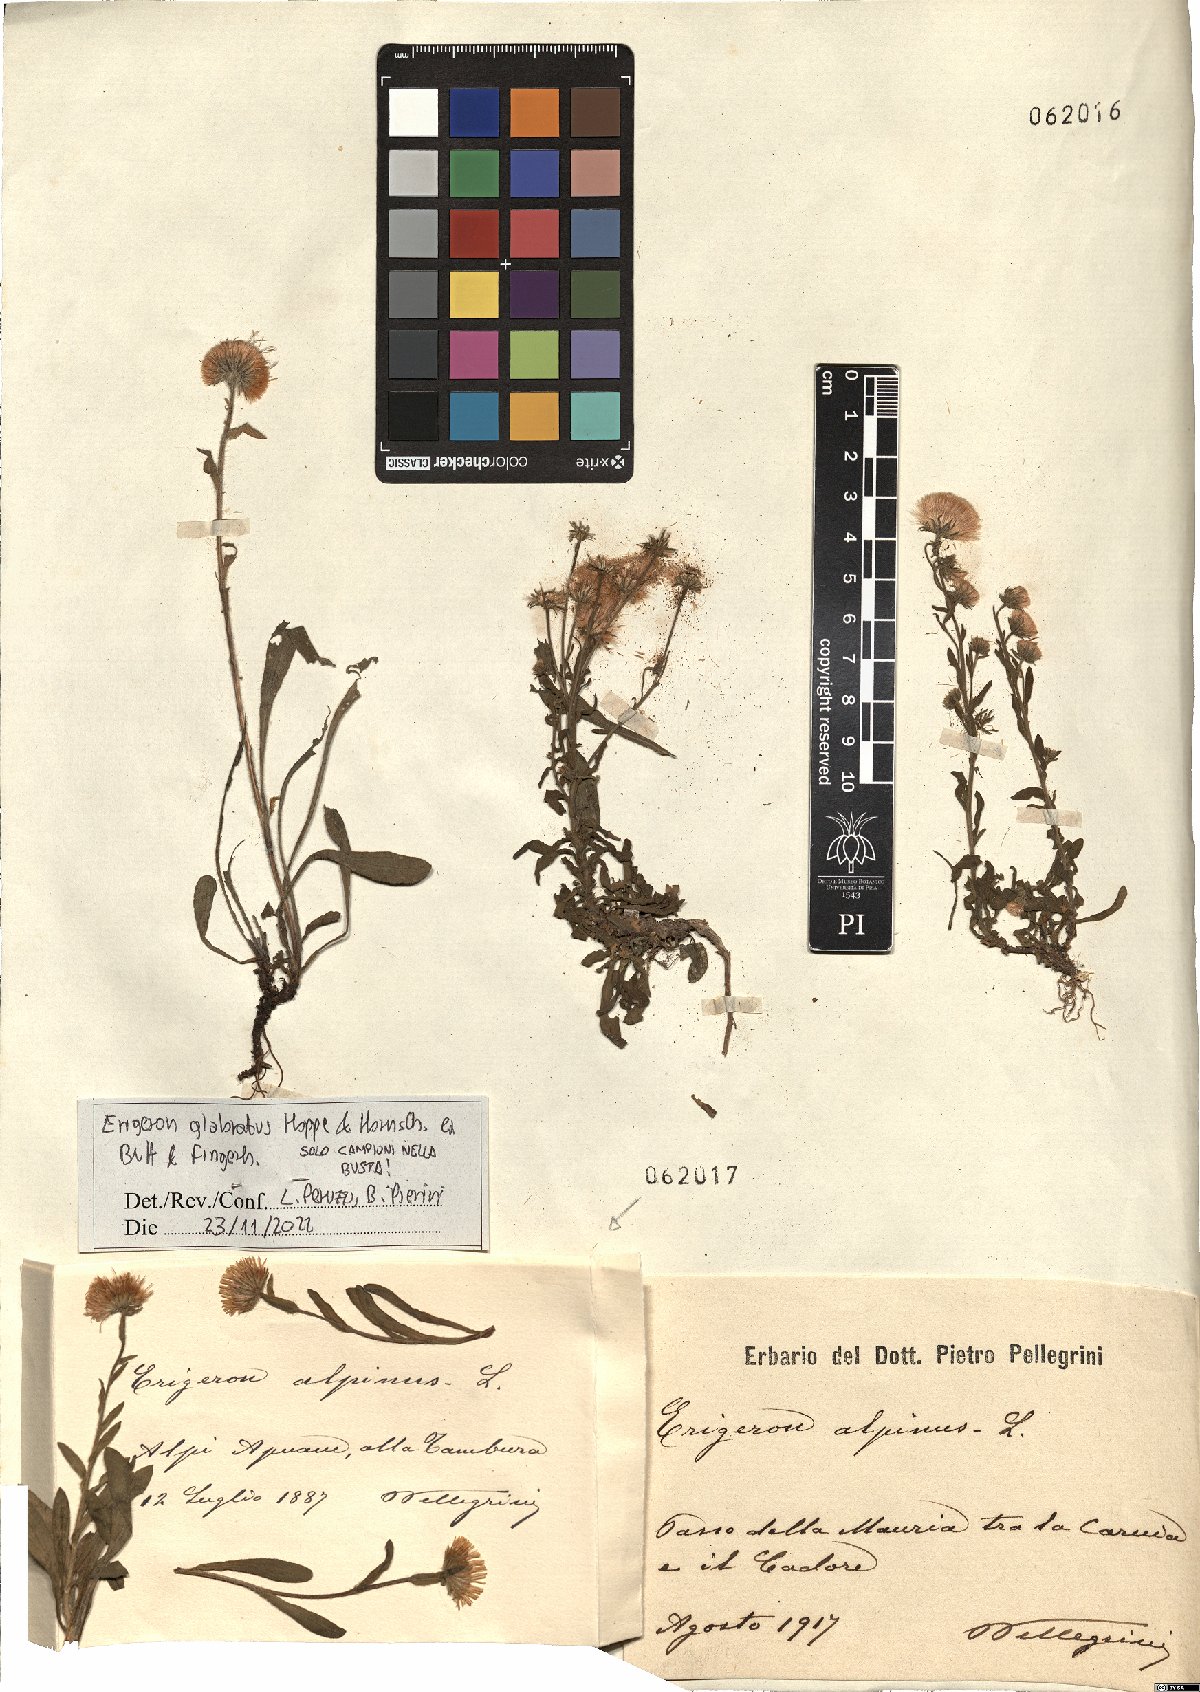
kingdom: Plantae
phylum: Tracheophyta
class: Magnoliopsida
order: Asterales
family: Asteraceae
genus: Erigeron
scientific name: Erigeron glabratus
